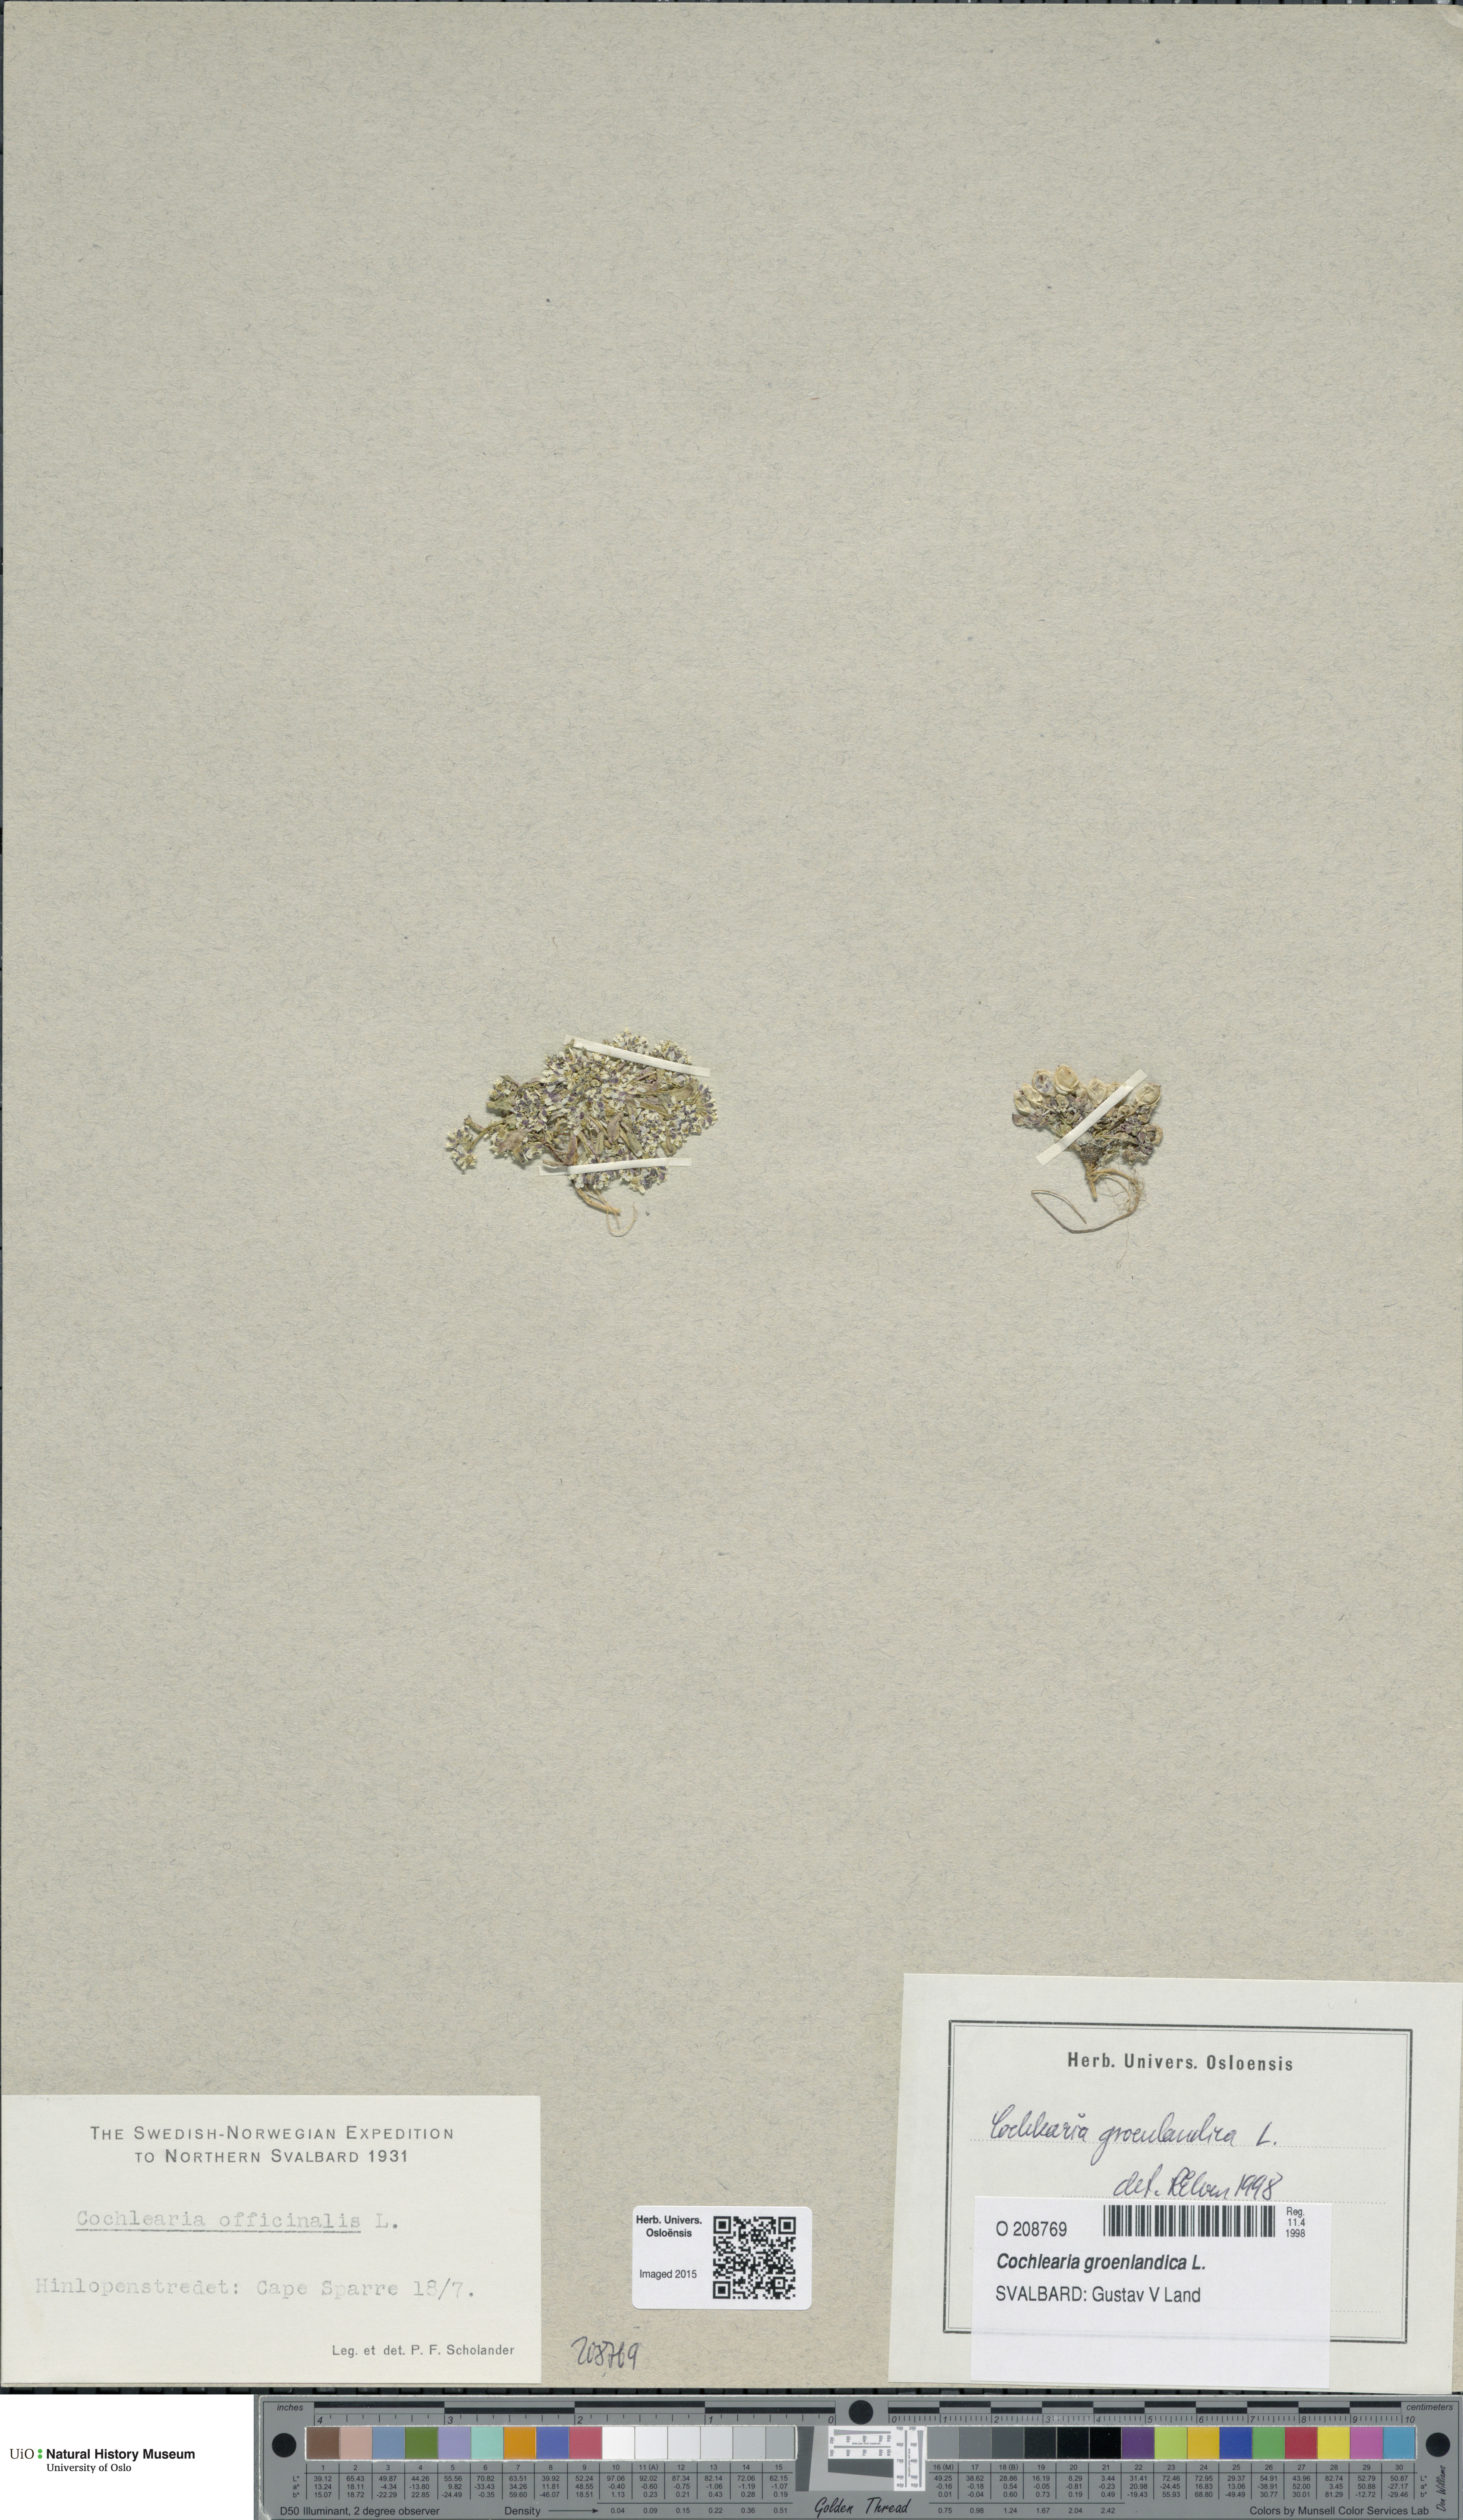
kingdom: Plantae
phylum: Tracheophyta
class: Magnoliopsida
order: Brassicales
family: Brassicaceae
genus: Cochlearia
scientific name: Cochlearia groenlandica
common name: Danish scurvygrass
